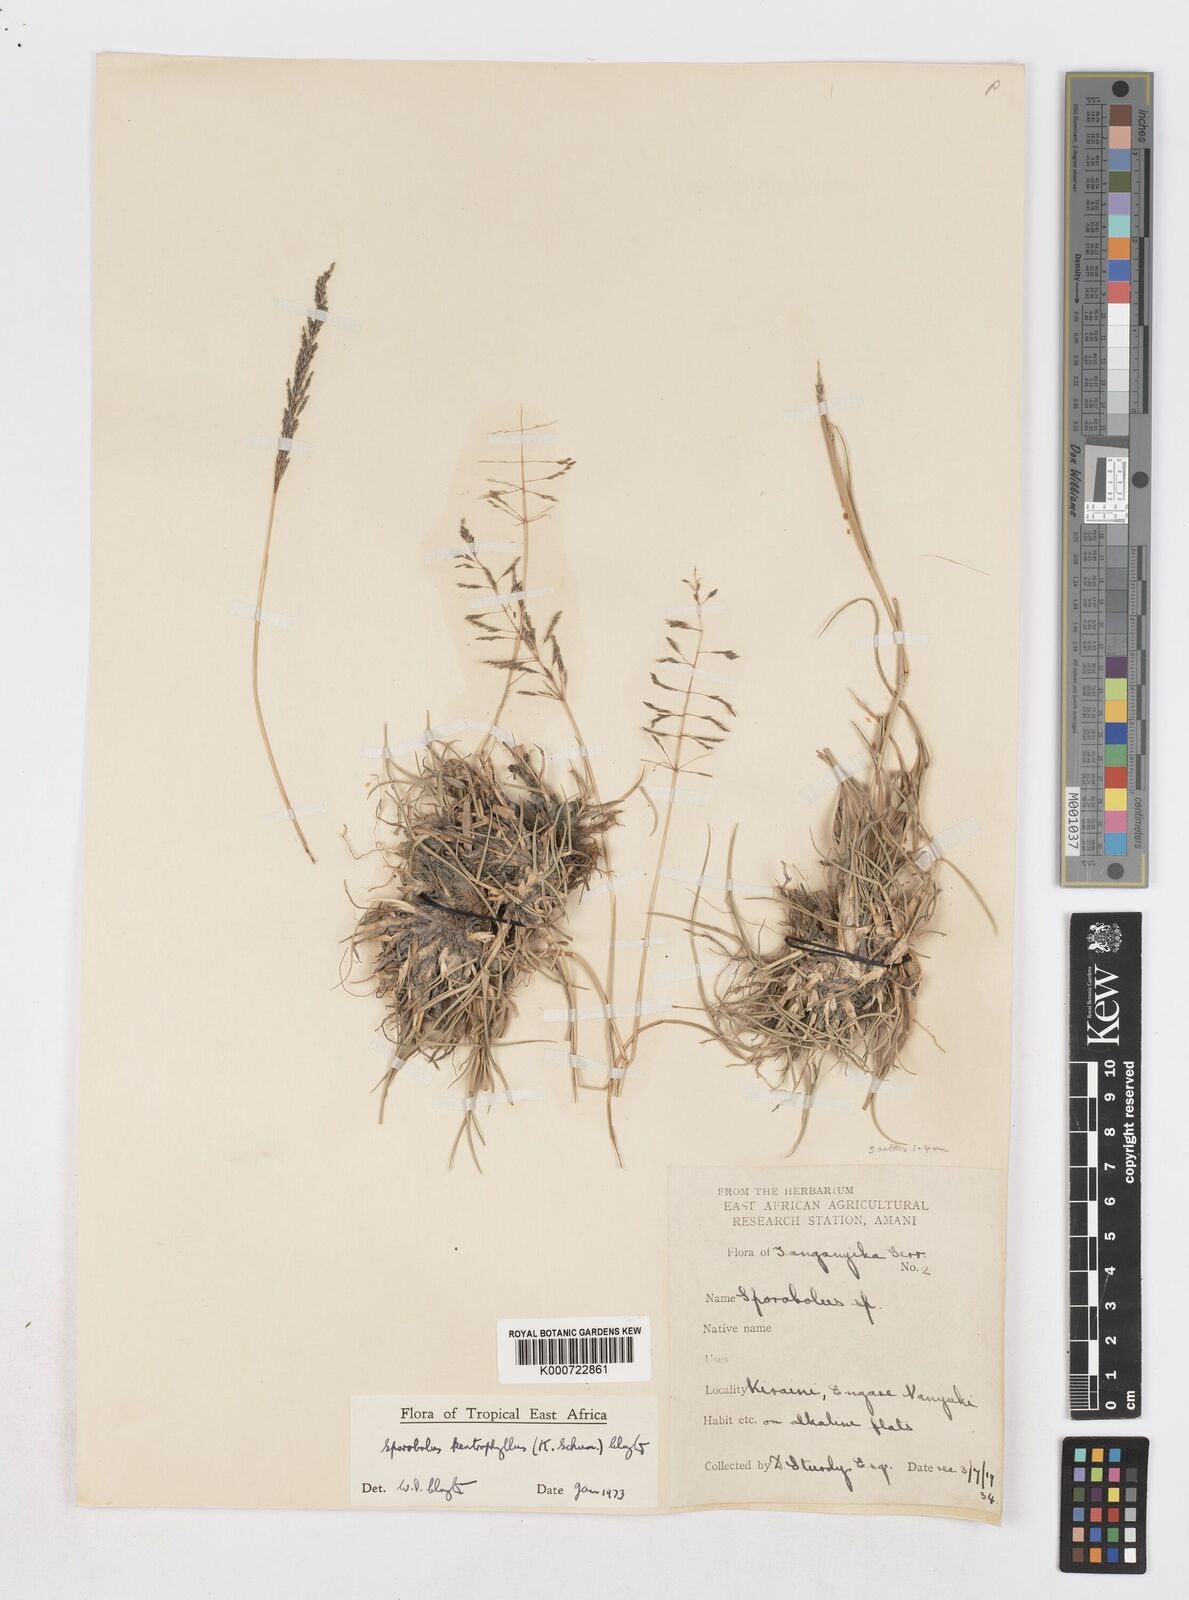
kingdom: Plantae
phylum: Tracheophyta
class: Liliopsida
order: Poales
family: Poaceae
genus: Sporobolus
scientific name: Sporobolus ioclados
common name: Pan dropseed
